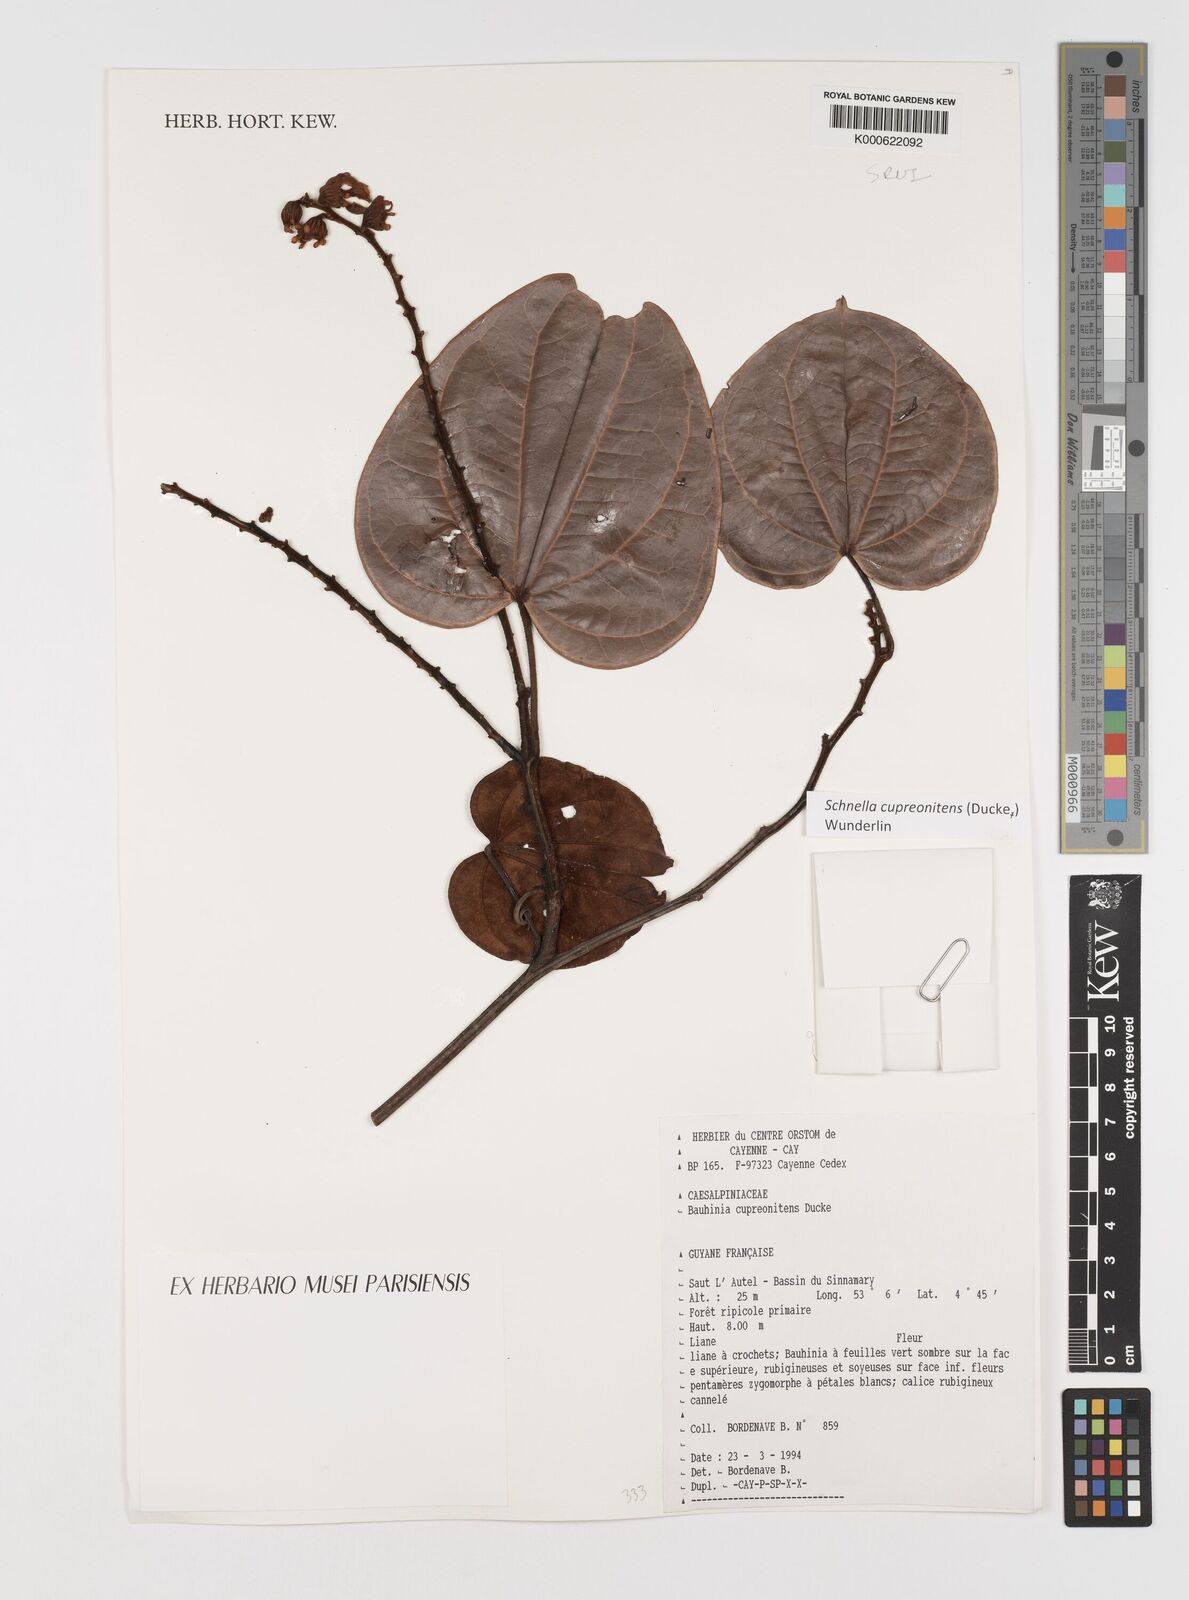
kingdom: Plantae
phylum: Tracheophyta
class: Magnoliopsida
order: Fabales
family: Fabaceae
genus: Schnella
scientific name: Schnella cupreonitens
